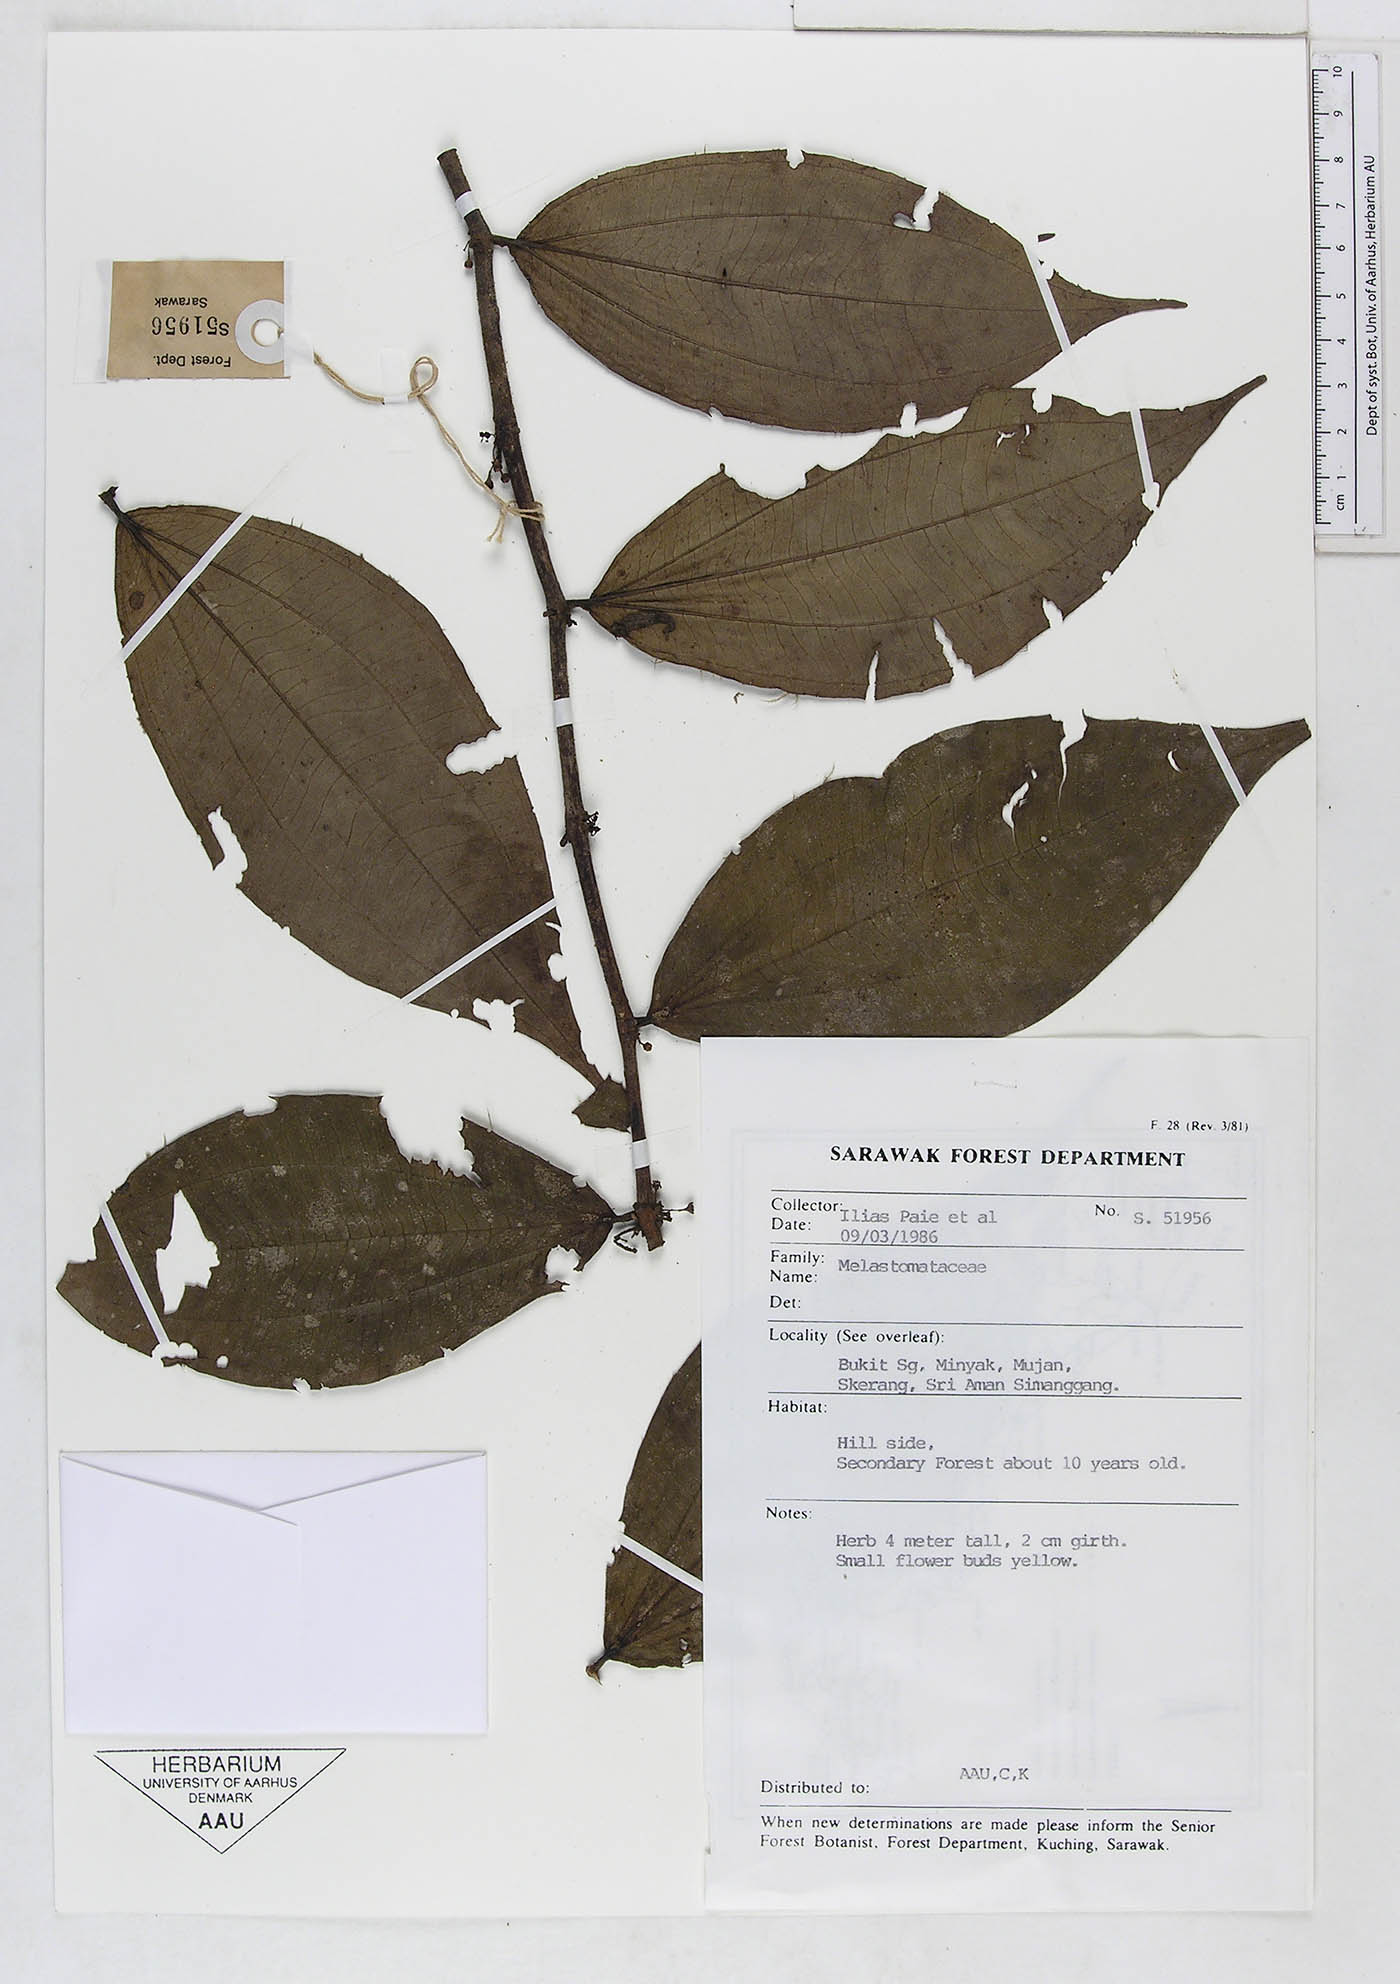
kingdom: Plantae
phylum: Tracheophyta
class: Magnoliopsida
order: Myrtales
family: Melastomataceae
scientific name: Melastomataceae
